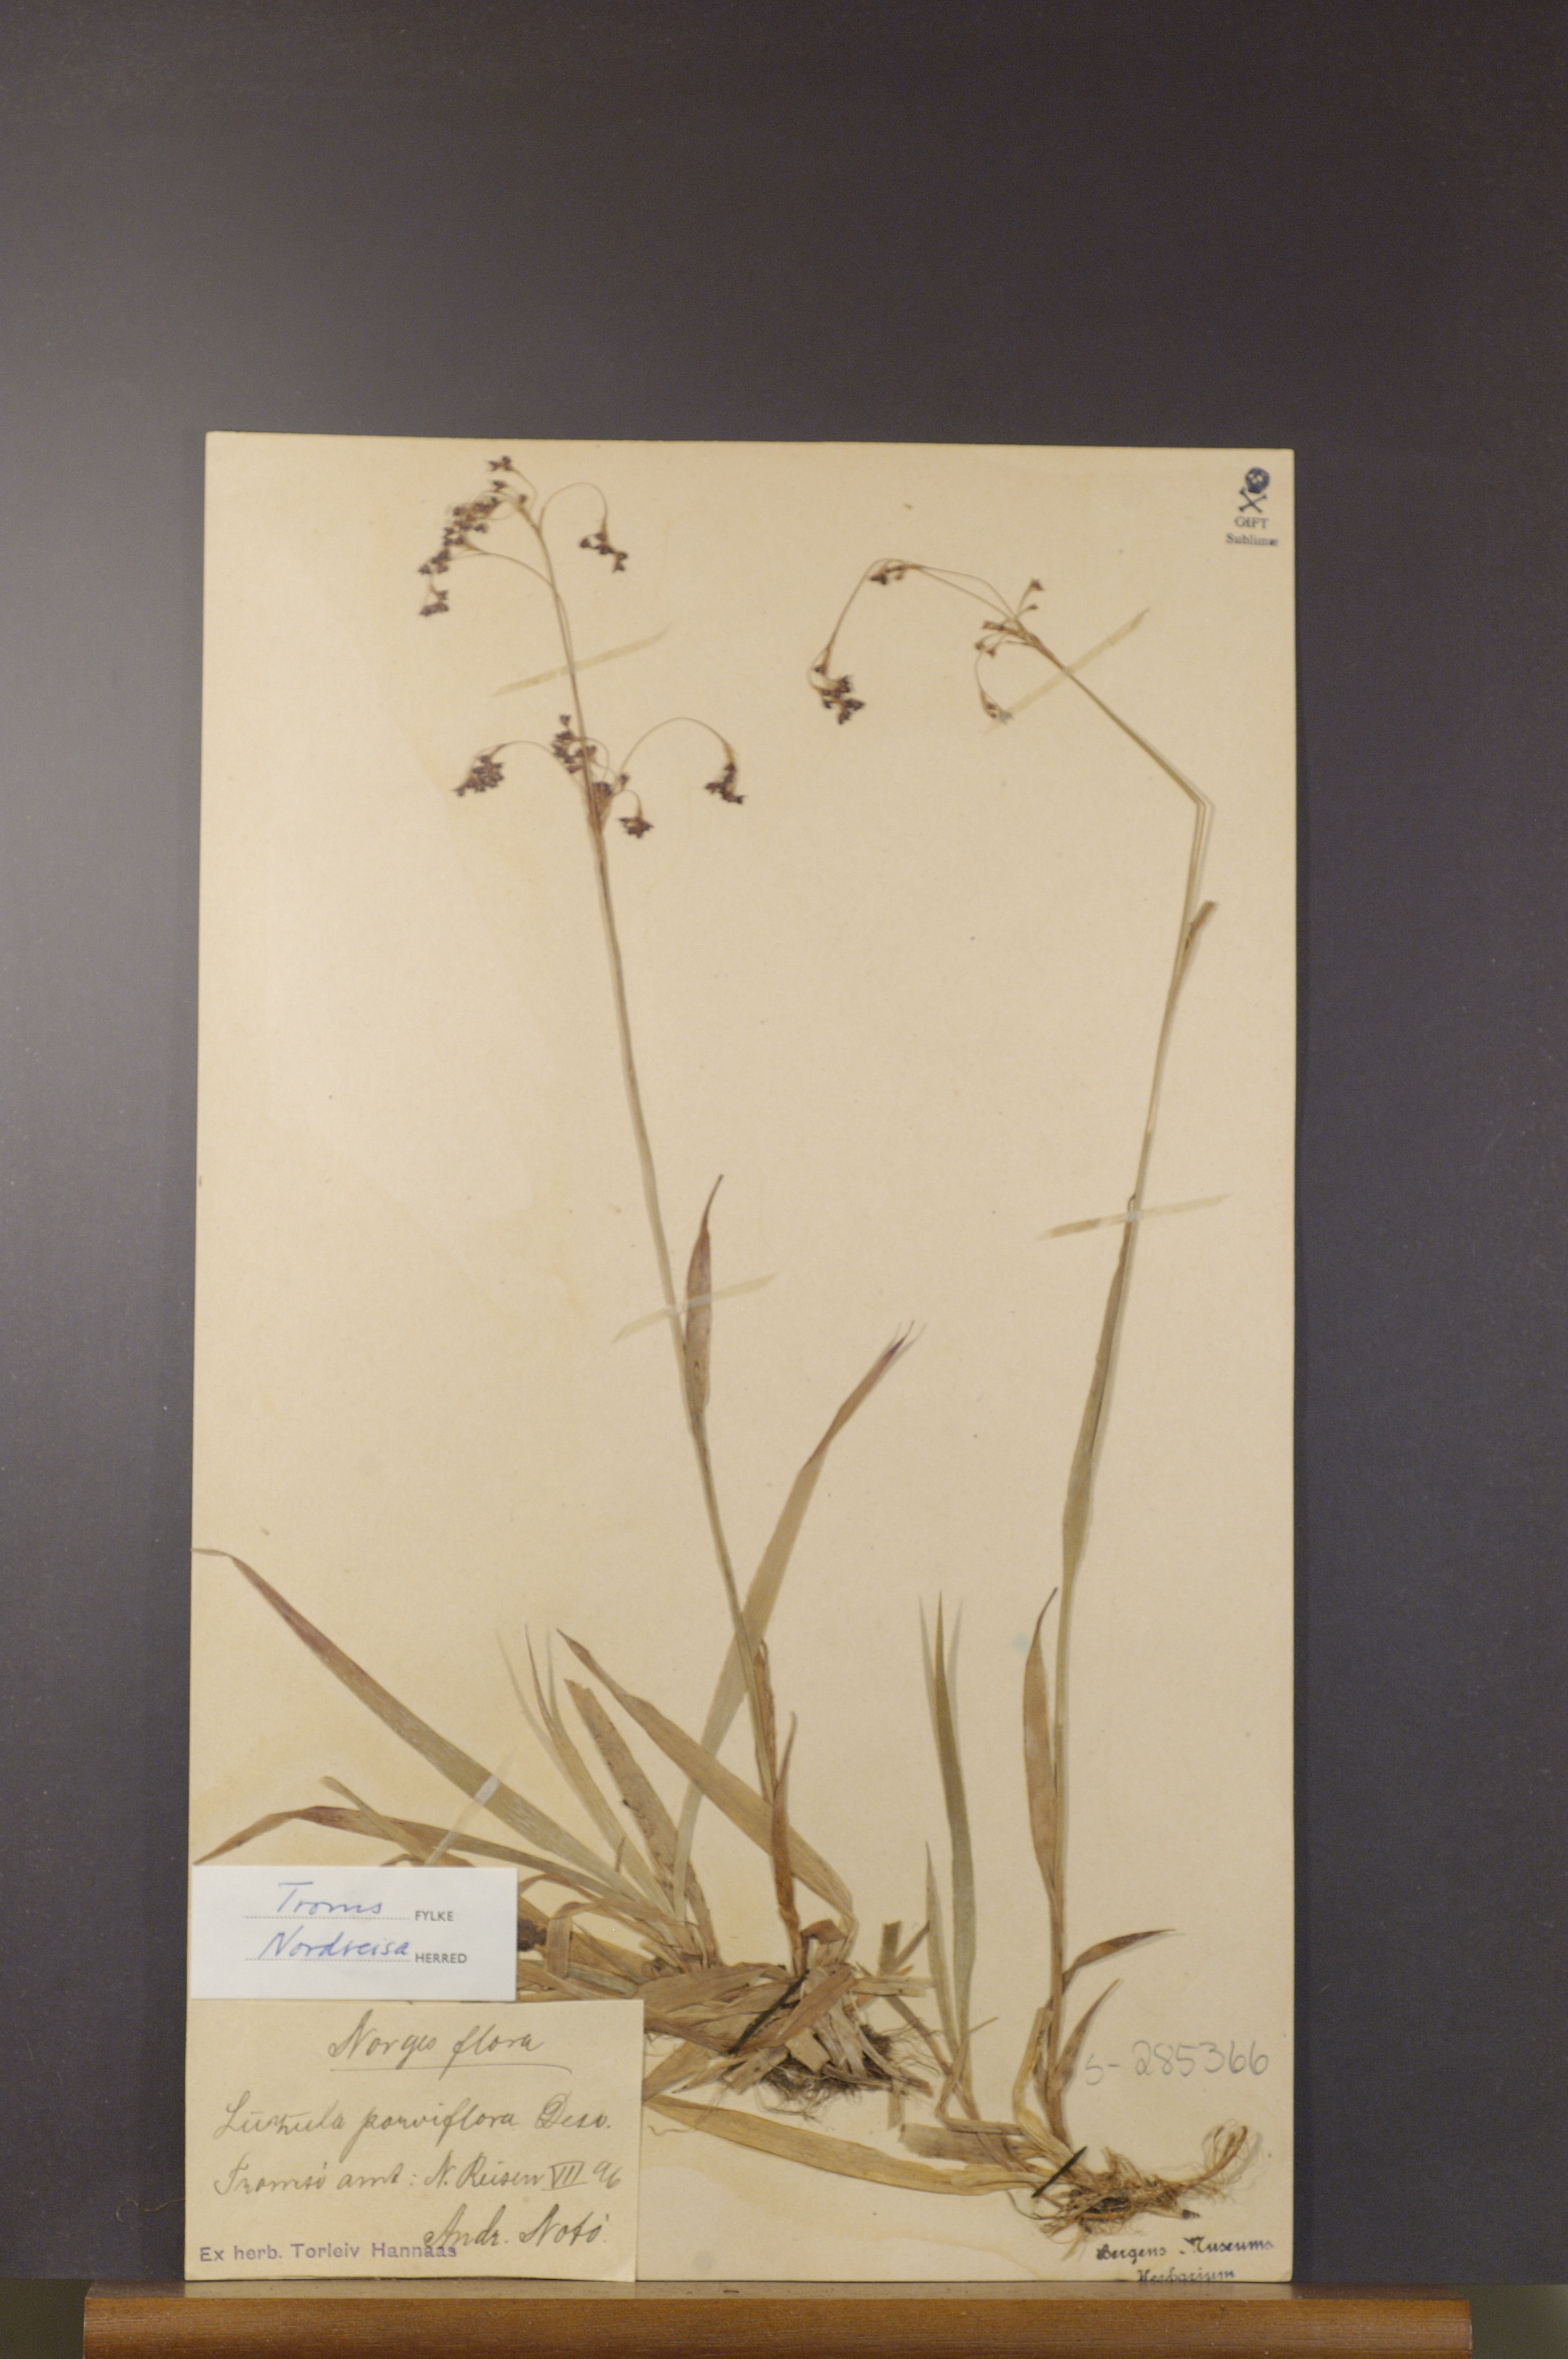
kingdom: Plantae
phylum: Tracheophyta
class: Liliopsida
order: Poales
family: Juncaceae
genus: Luzula
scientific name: Luzula parviflora
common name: Millet woodrush
